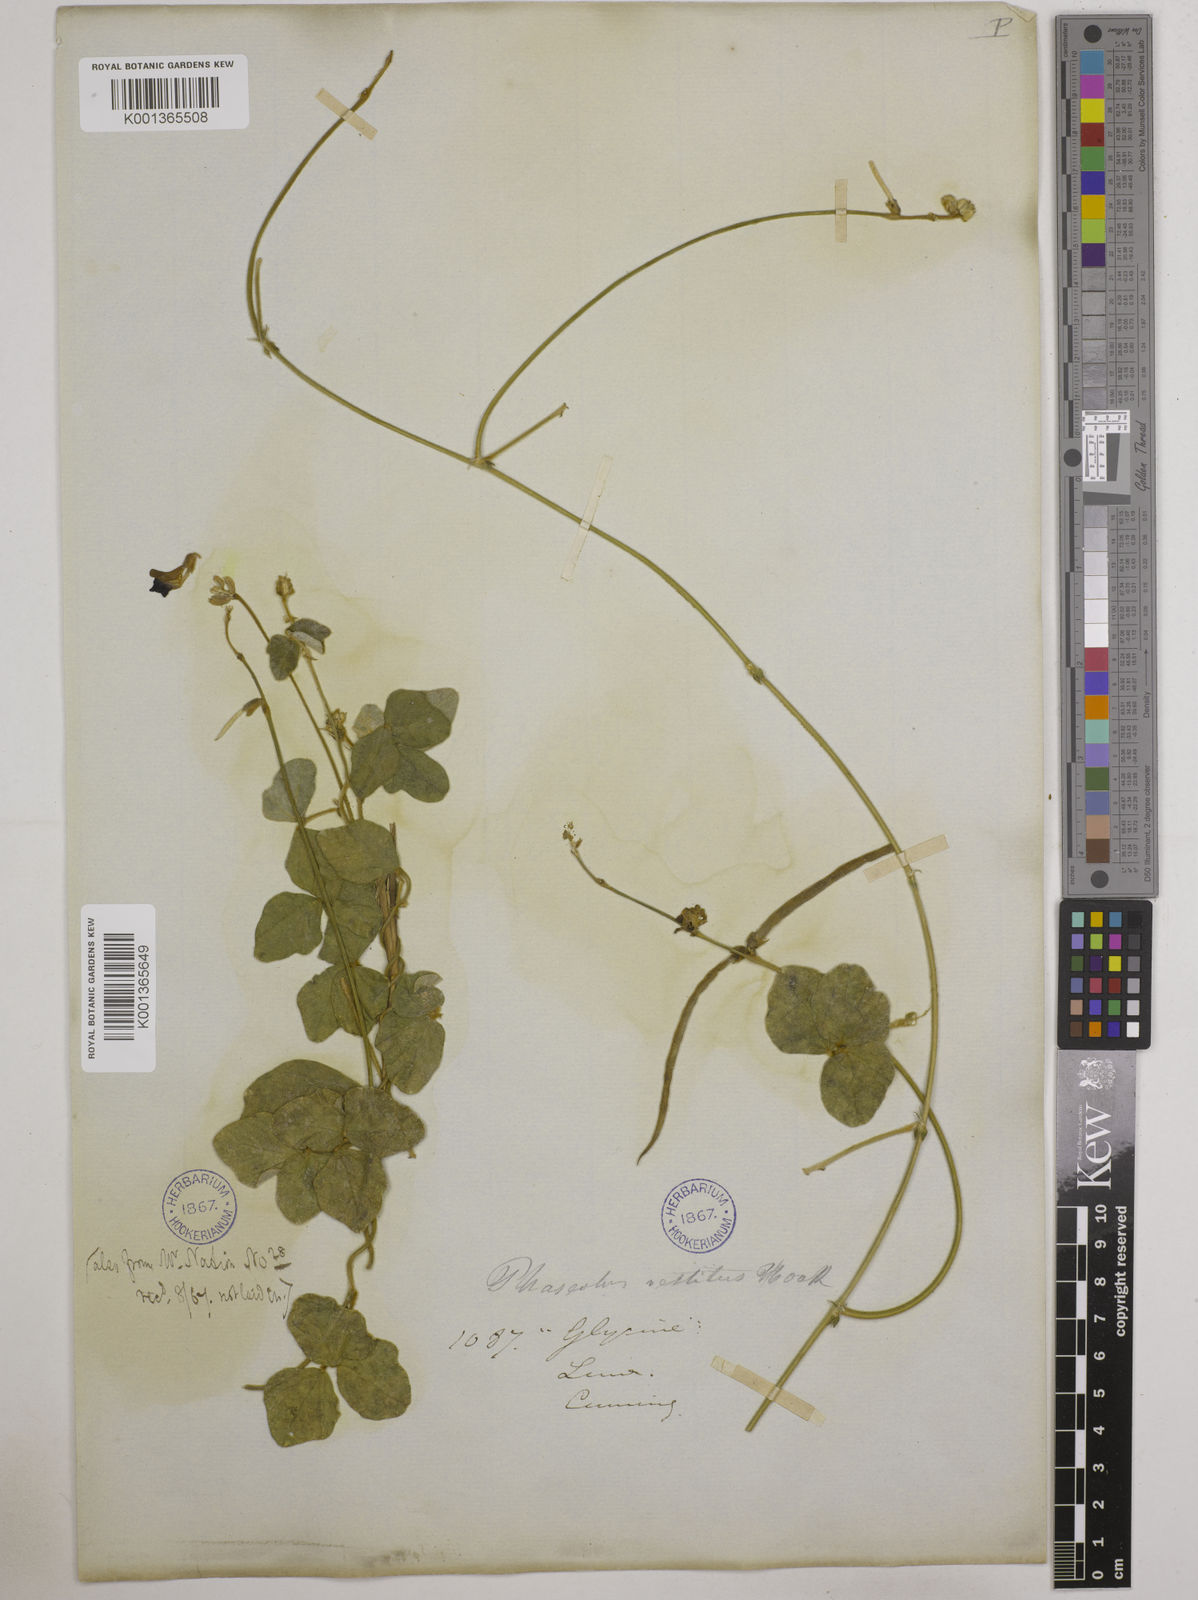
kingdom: Plantae
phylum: Tracheophyta
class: Magnoliopsida
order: Fabales
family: Fabaceae
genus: Macroptilium
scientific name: Macroptilium atropurpureum
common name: Purple bushbean
